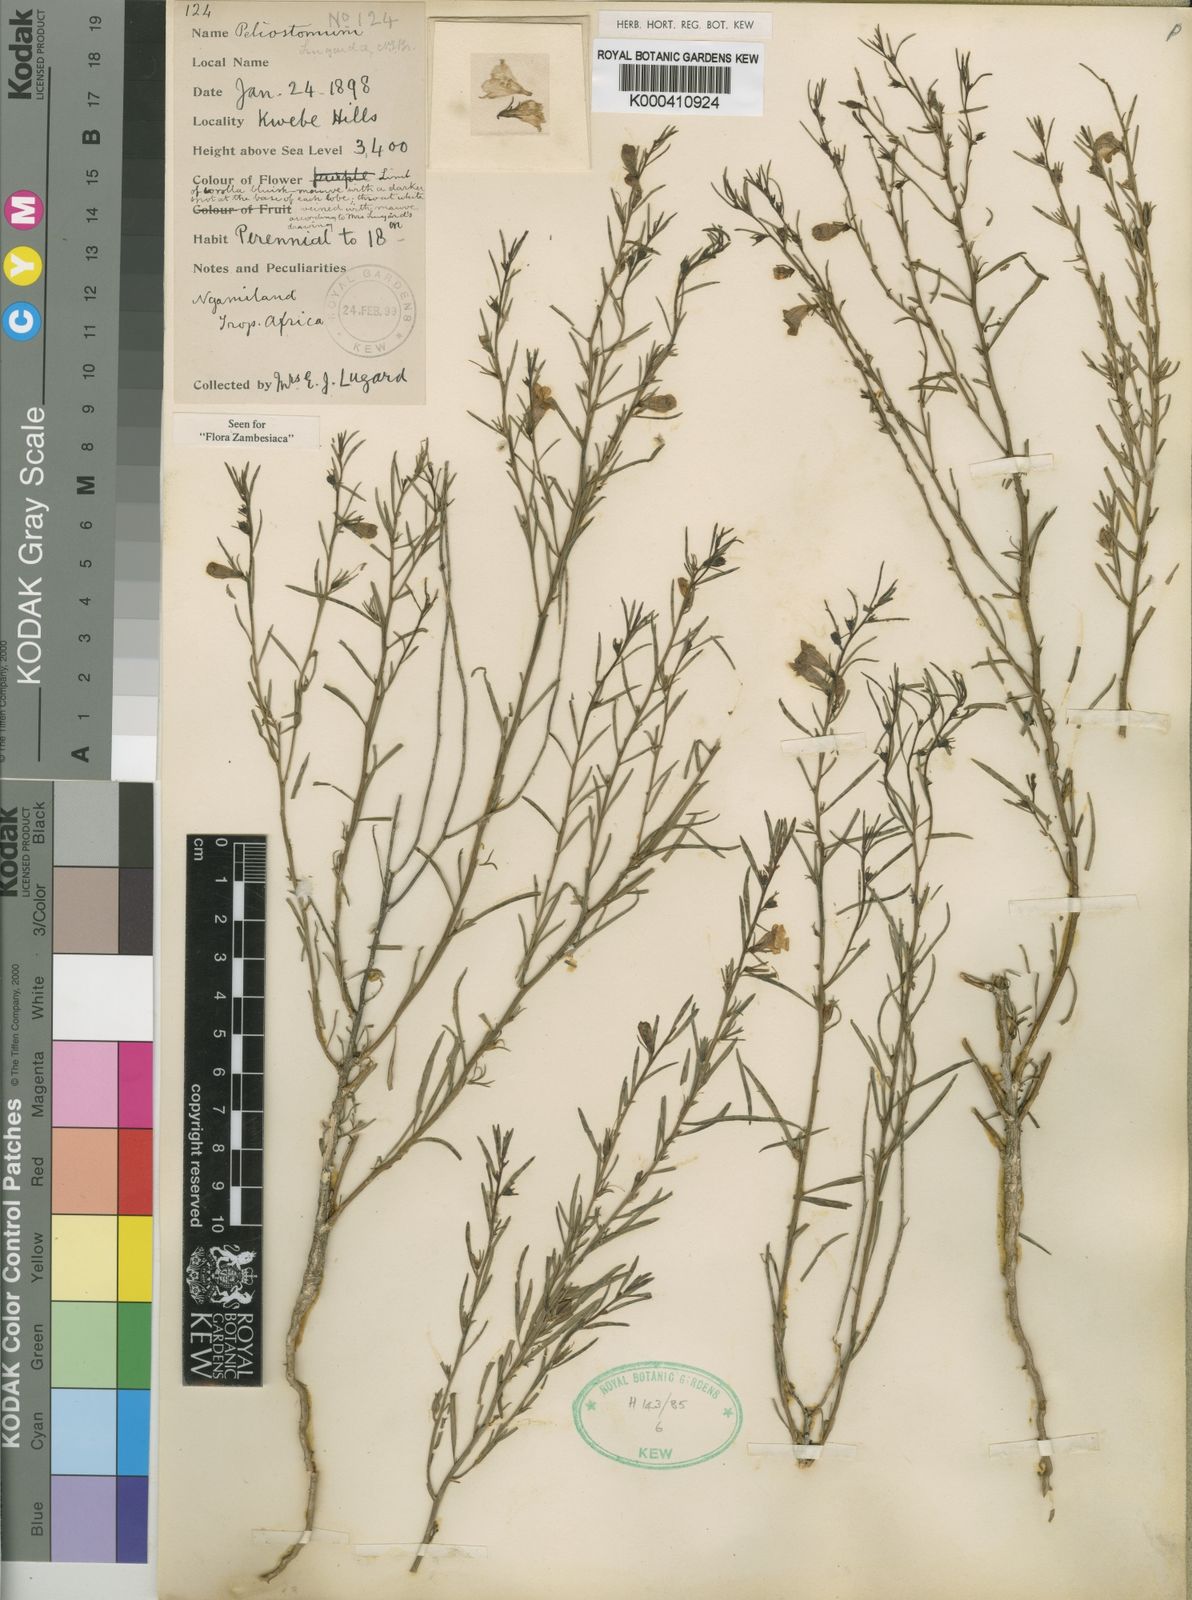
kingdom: Plantae
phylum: Tracheophyta
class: Magnoliopsida
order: Lamiales
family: Scrophulariaceae
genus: Peliostomum
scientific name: Peliostomum lugardiae
